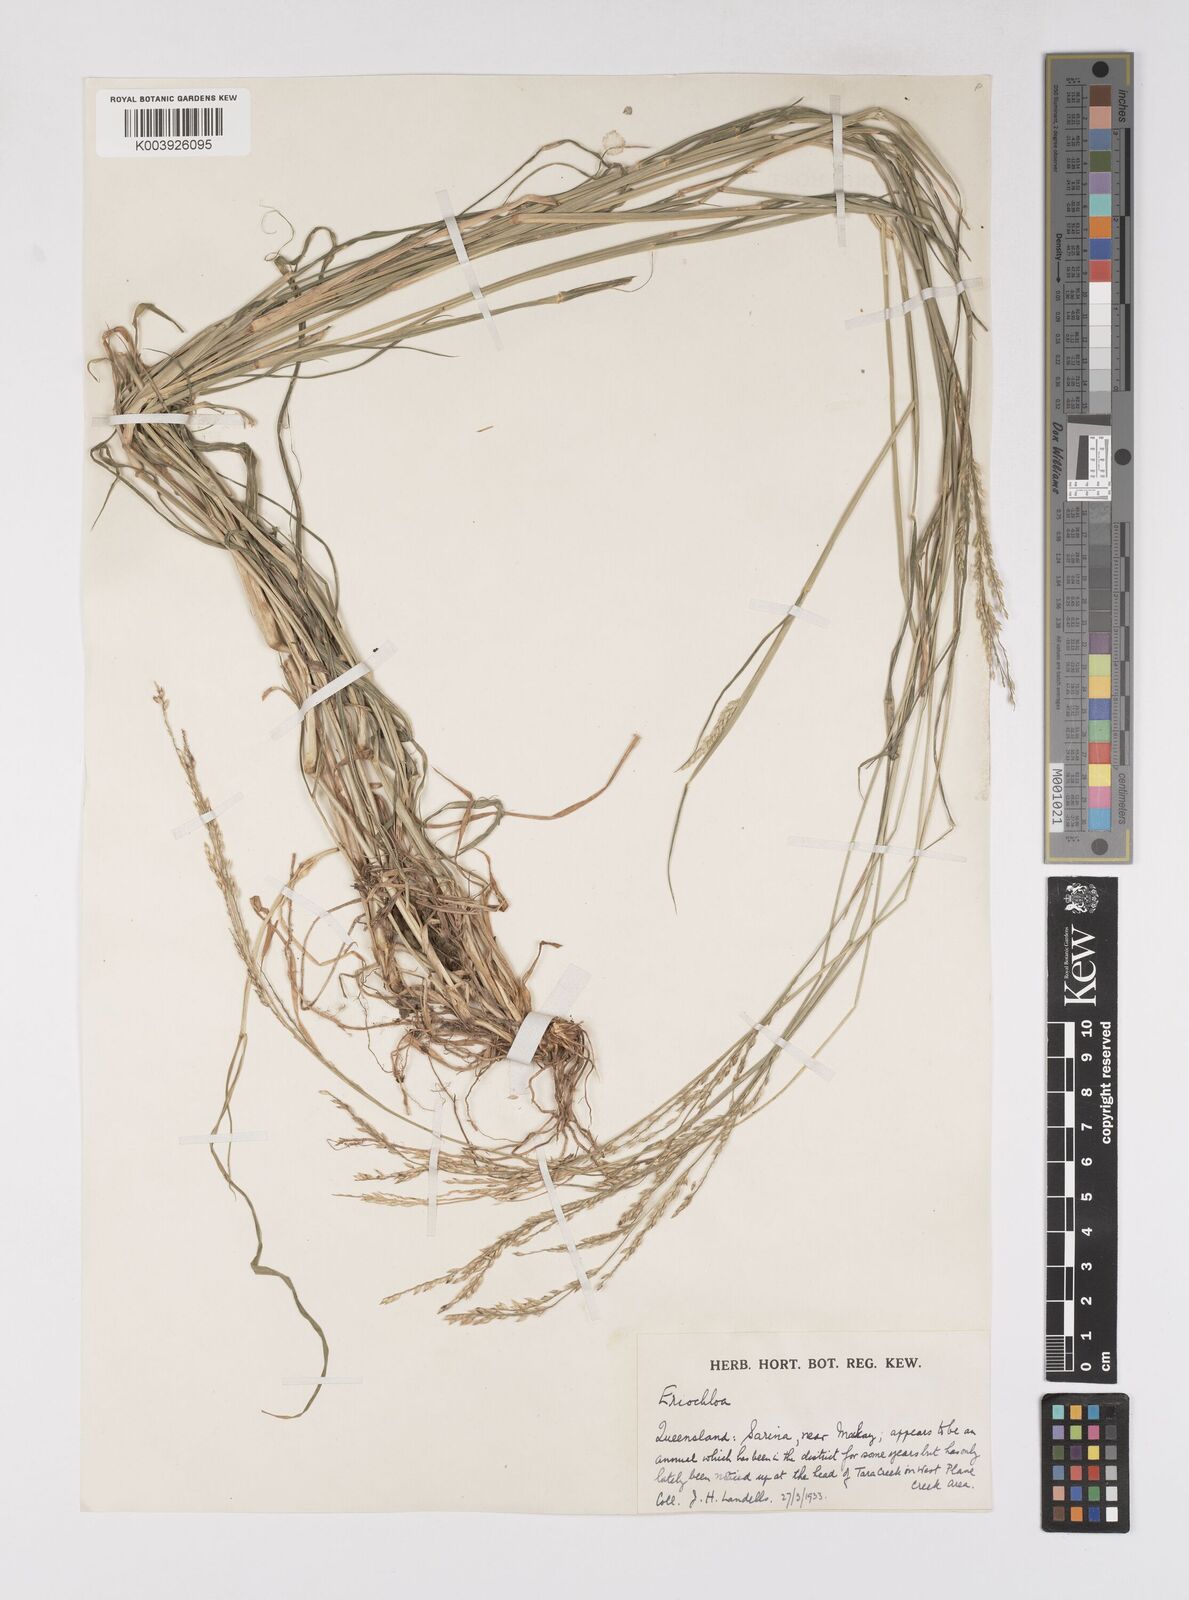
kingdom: Plantae
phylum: Tracheophyta
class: Liliopsida
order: Poales
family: Poaceae
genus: Eriochloa
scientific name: Eriochloa
